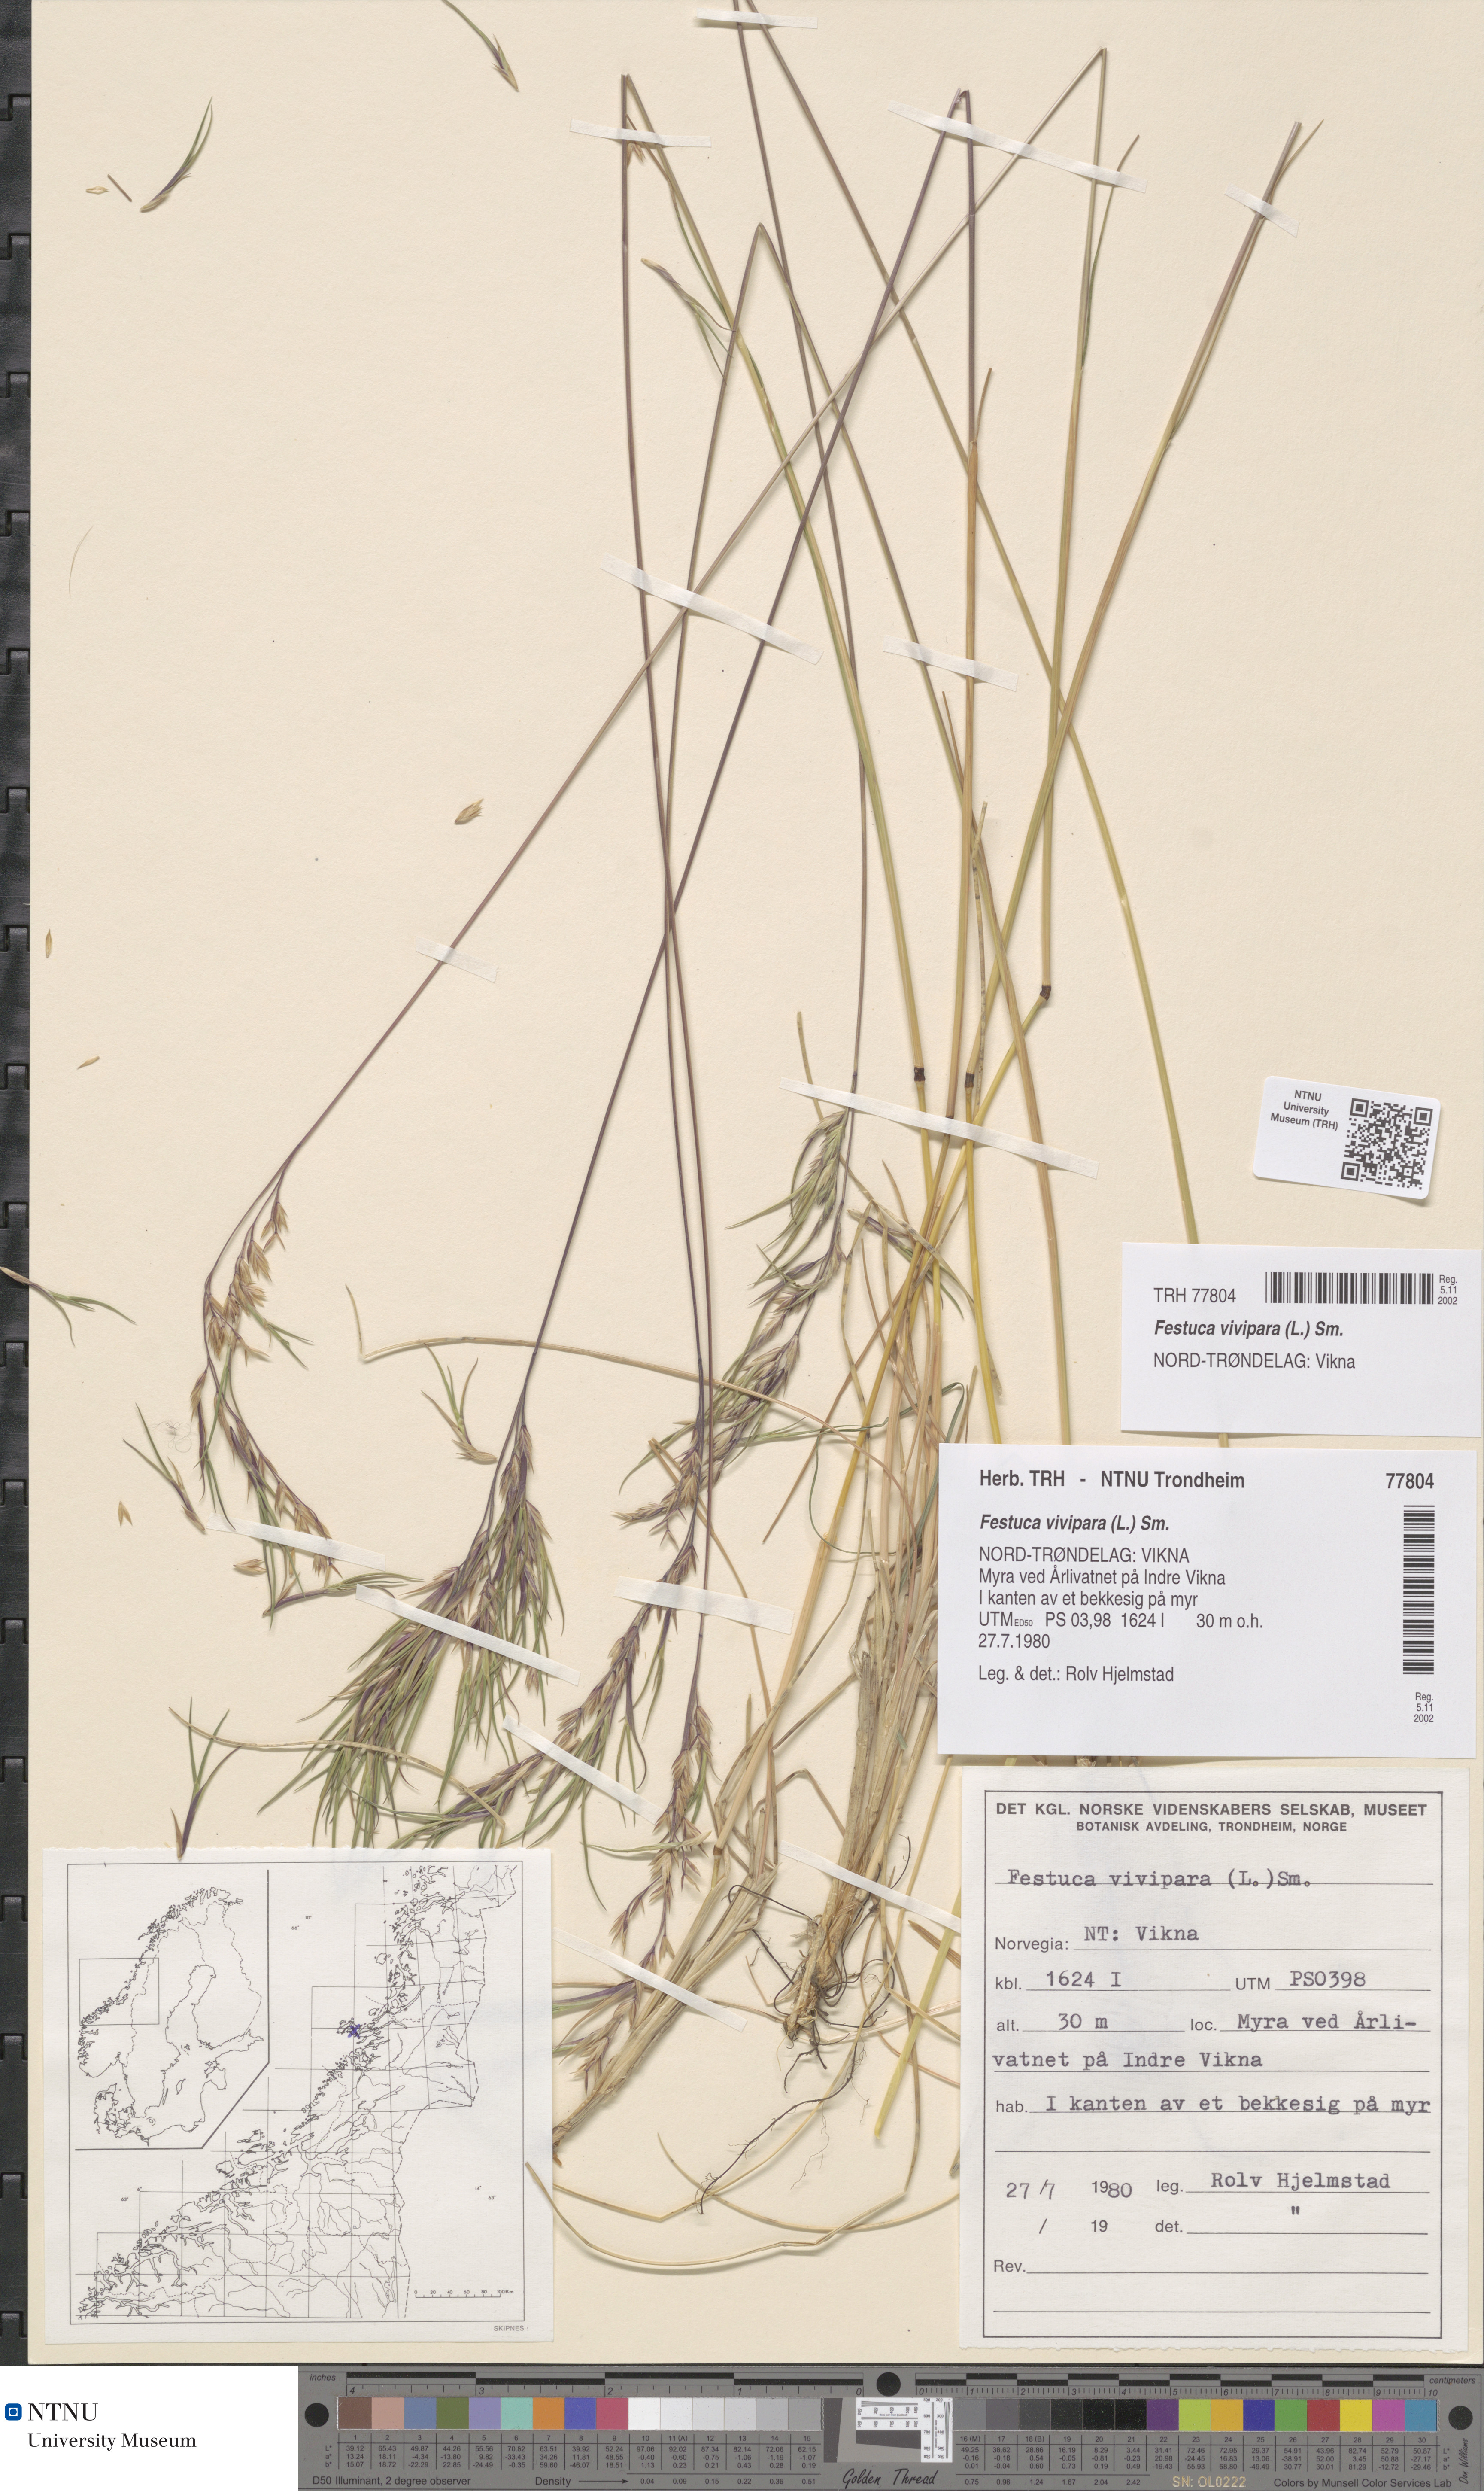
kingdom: Plantae
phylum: Tracheophyta
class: Liliopsida
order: Poales
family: Poaceae
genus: Festuca
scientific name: Festuca vivipara
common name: Viviparous sheep's-fescue
